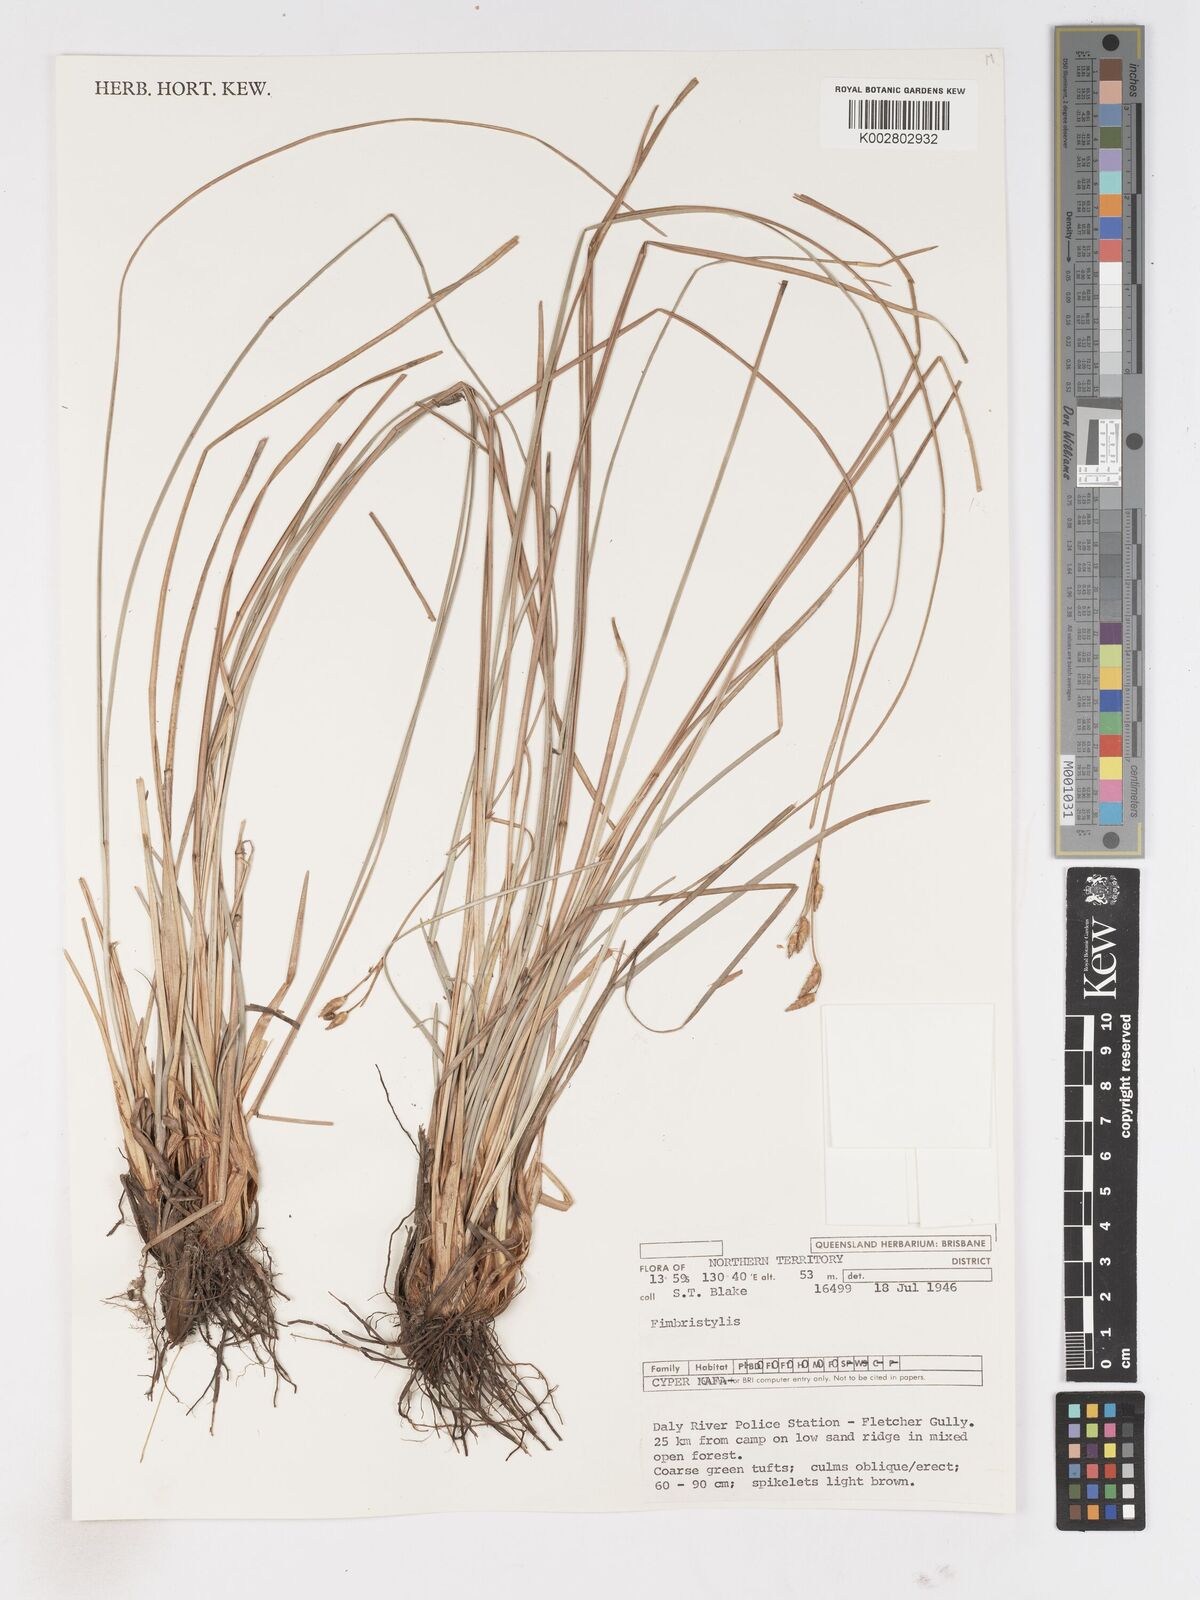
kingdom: Plantae
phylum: Tracheophyta
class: Liliopsida
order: Poales
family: Cyperaceae
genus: Fimbristylis
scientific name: Fimbristylis
